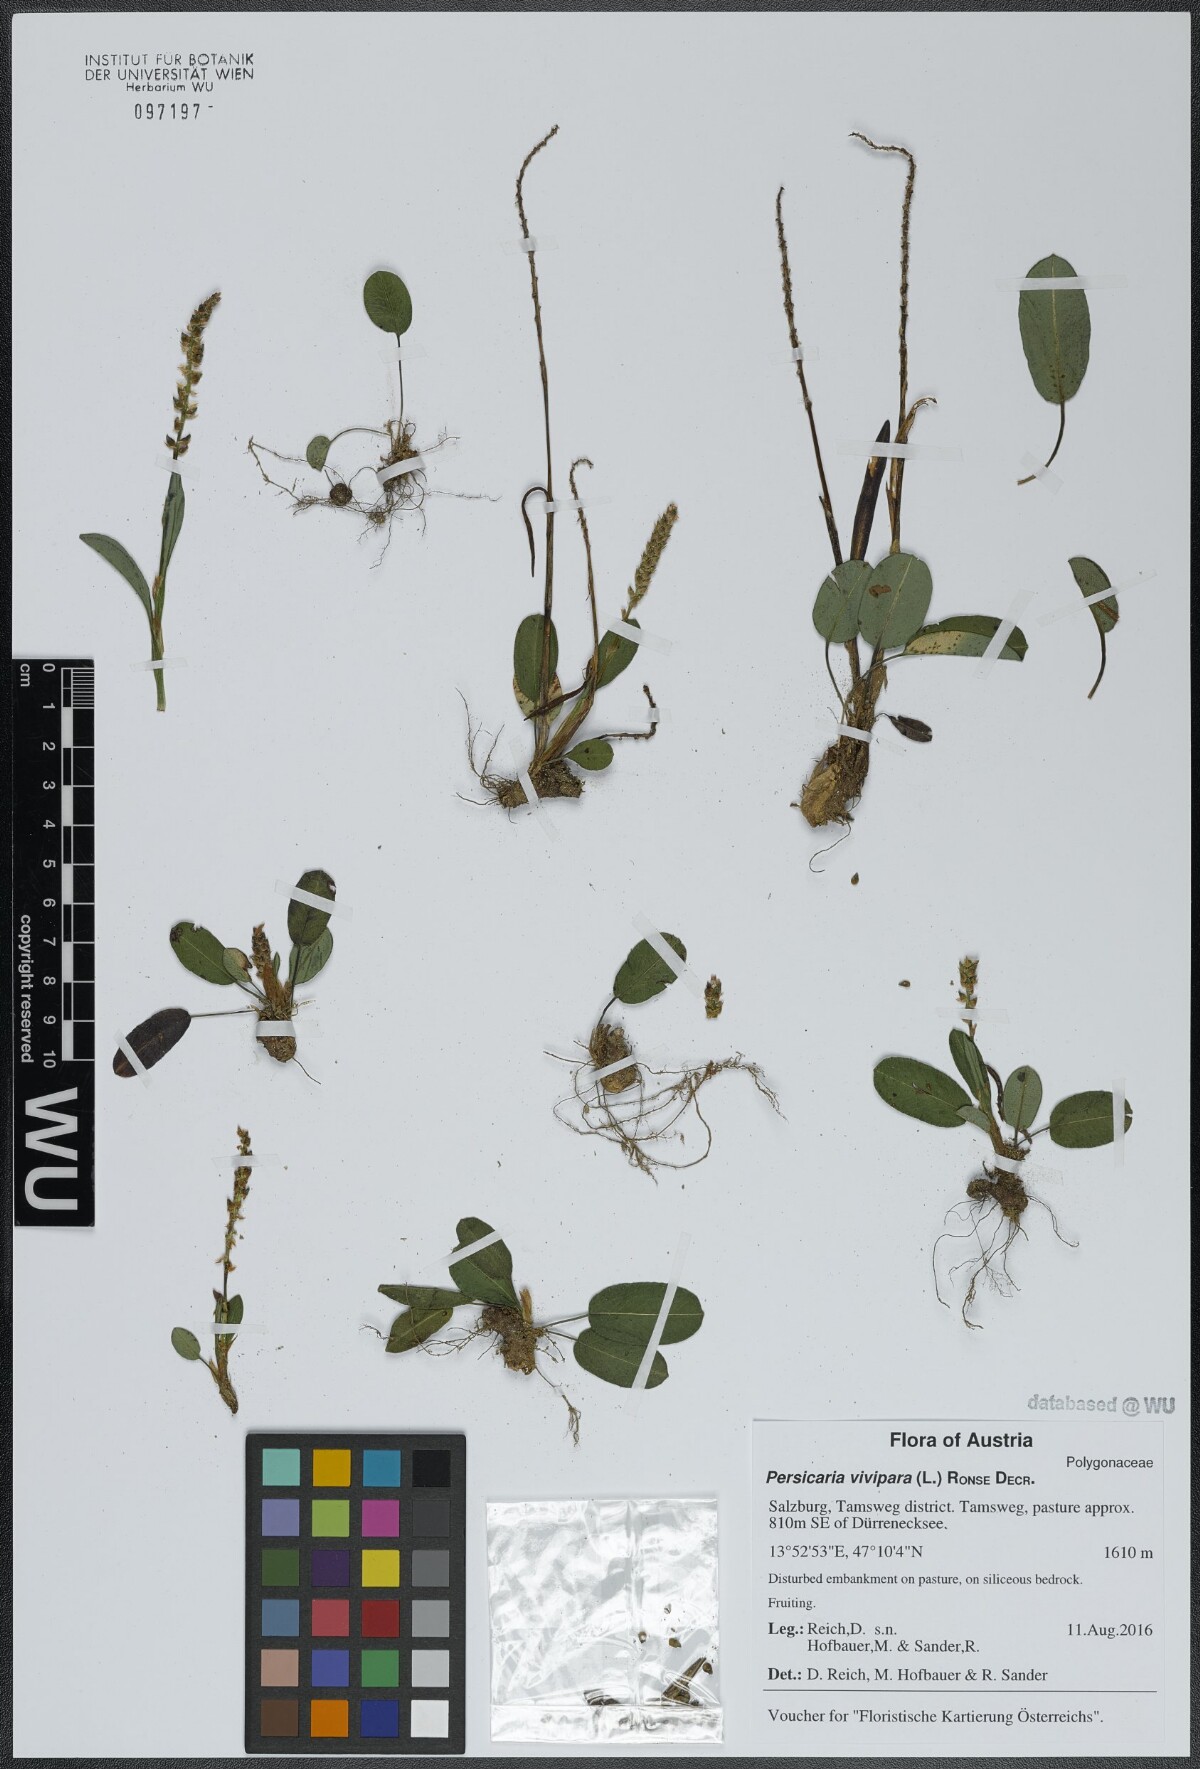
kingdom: Plantae
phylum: Tracheophyta
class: Magnoliopsida
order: Caryophyllales
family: Polygonaceae
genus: Bistorta
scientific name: Bistorta vivipara
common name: Alpine bistort
